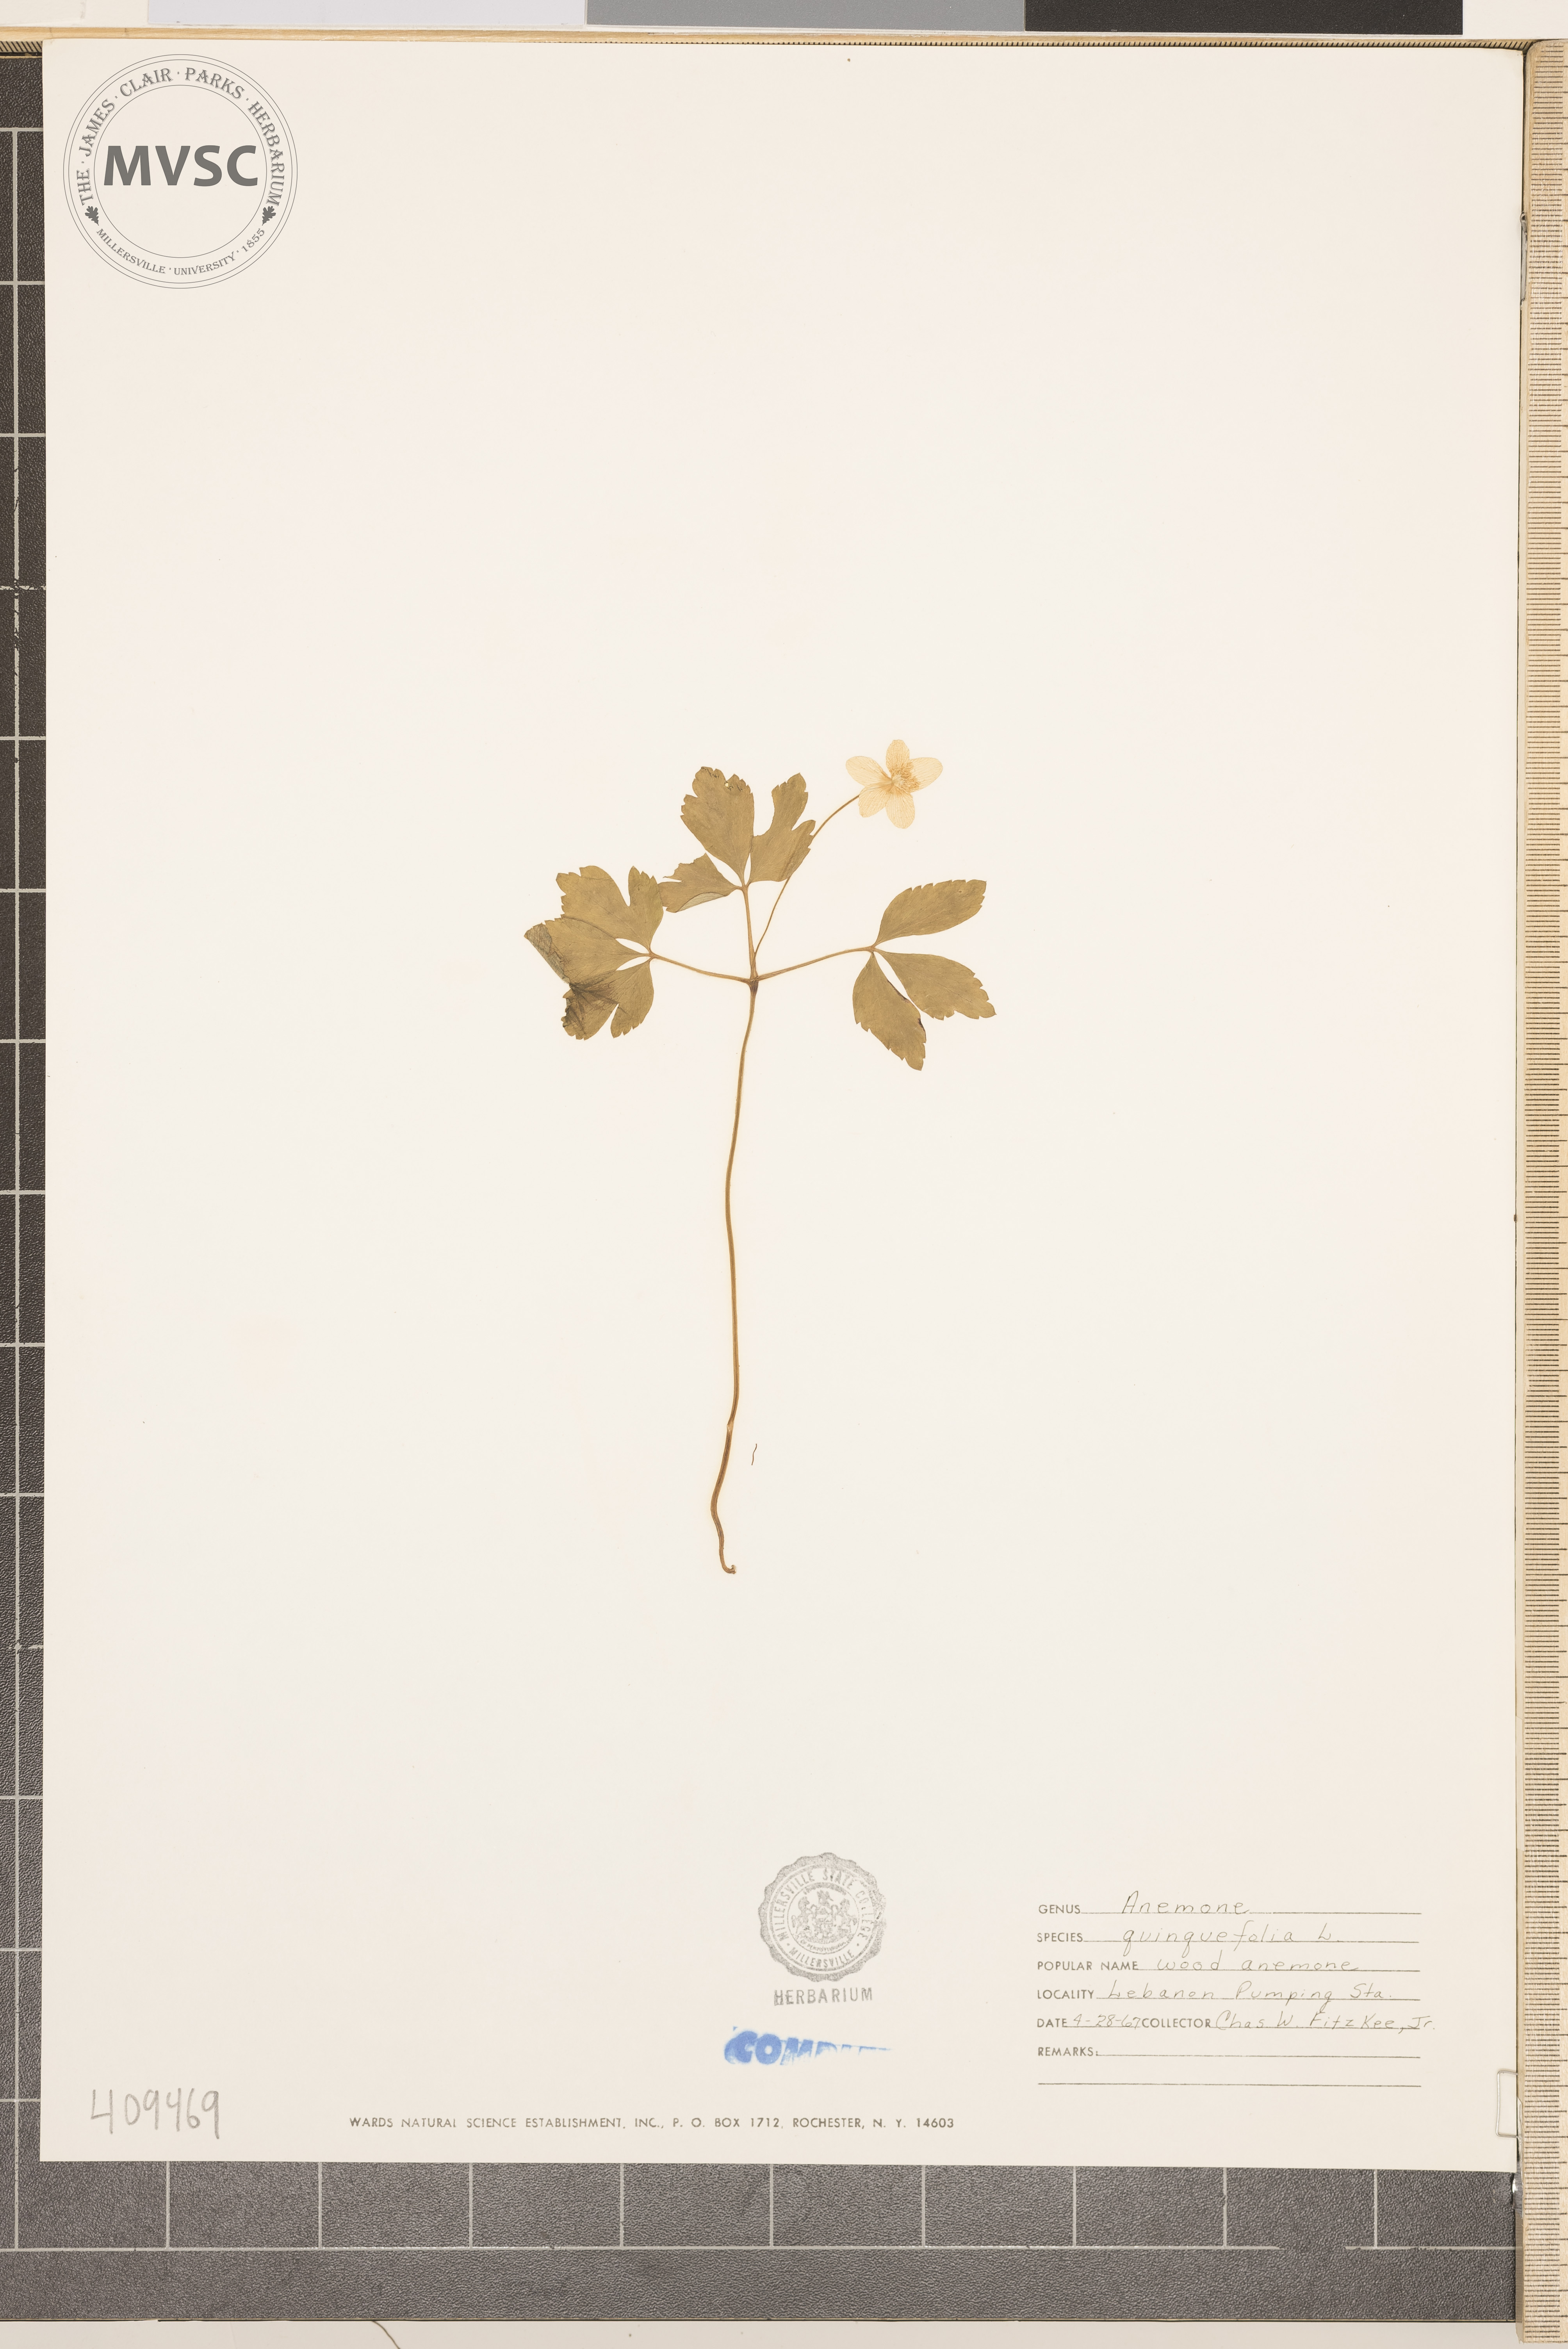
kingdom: Plantae
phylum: Tracheophyta
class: Magnoliopsida
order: Ranunculales
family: Ranunculaceae
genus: Anemone
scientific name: Anemone quinquefolia
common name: Wood anemone
